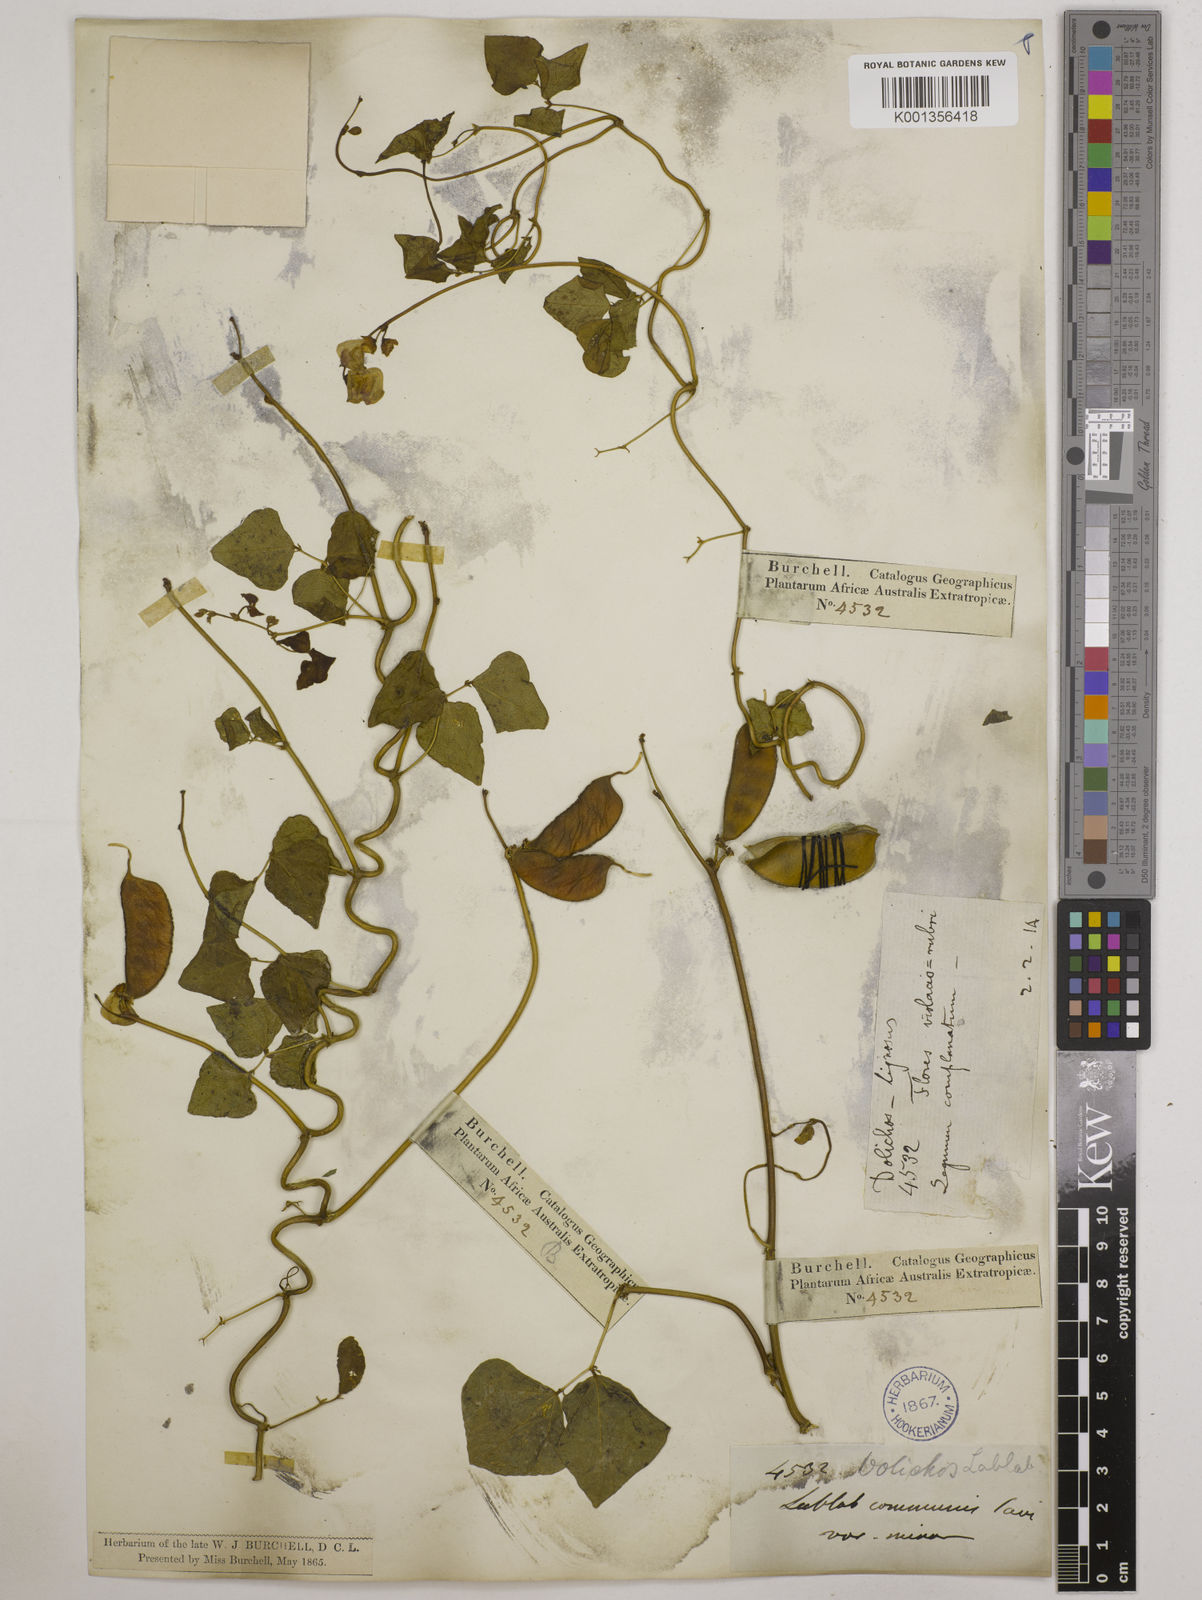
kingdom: Plantae
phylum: Tracheophyta
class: Magnoliopsida
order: Fabales
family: Fabaceae
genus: Lablab
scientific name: Lablab purpureus
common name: Lablab-bean
